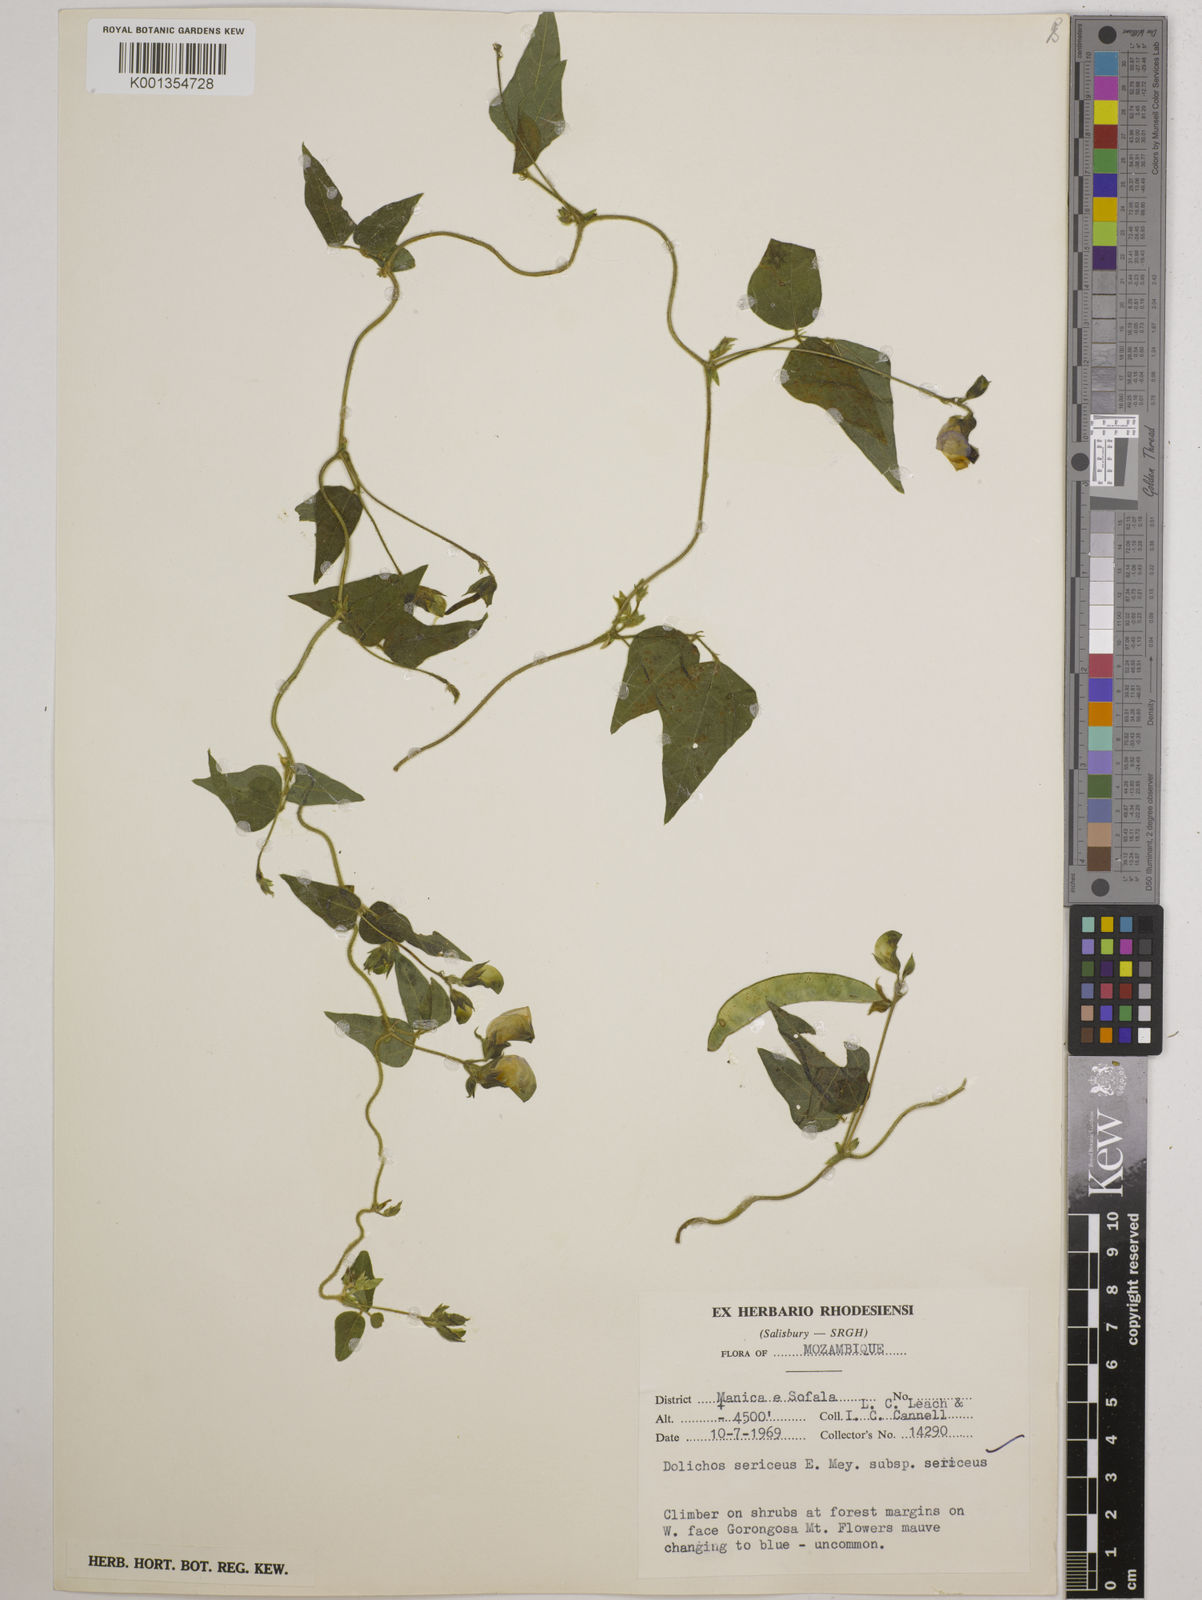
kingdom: Plantae
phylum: Tracheophyta
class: Magnoliopsida
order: Fabales
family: Fabaceae
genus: Dolichos
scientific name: Dolichos sericeus
